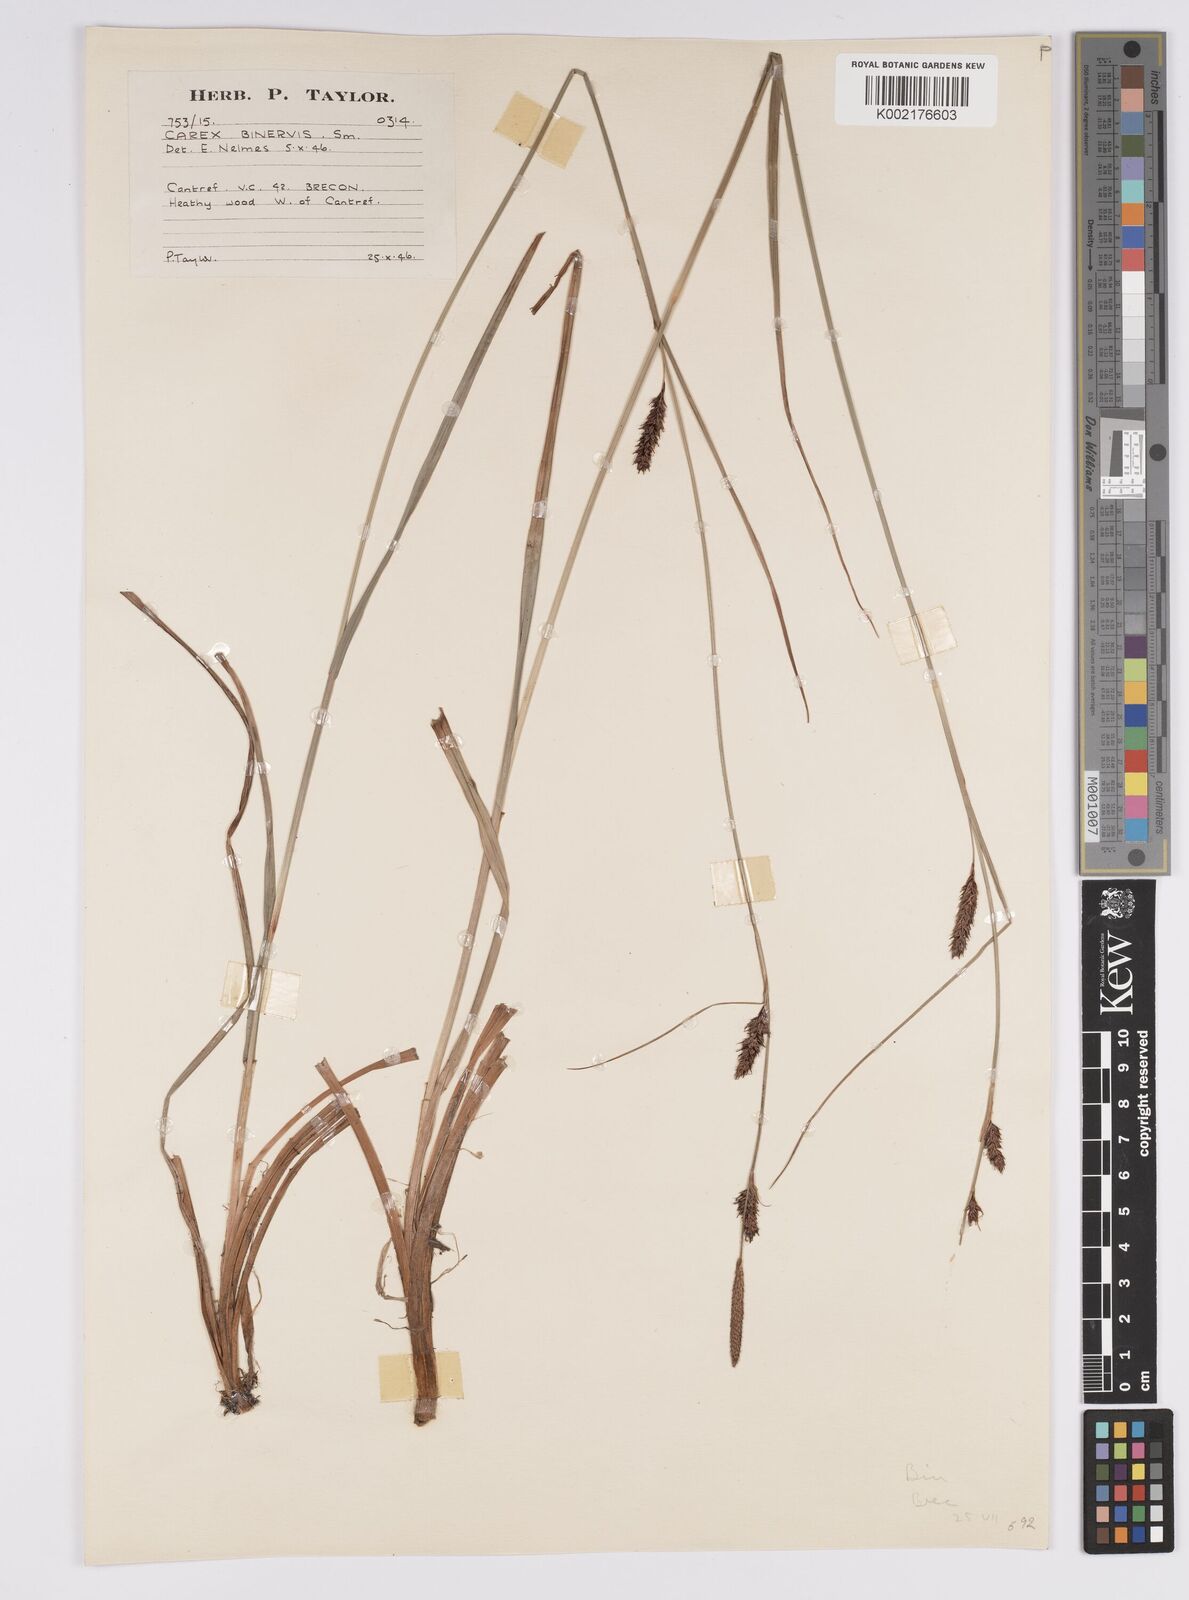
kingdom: Plantae
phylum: Tracheophyta
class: Liliopsida
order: Poales
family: Cyperaceae
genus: Carex
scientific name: Carex binervis
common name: Green-ribbed sedge
